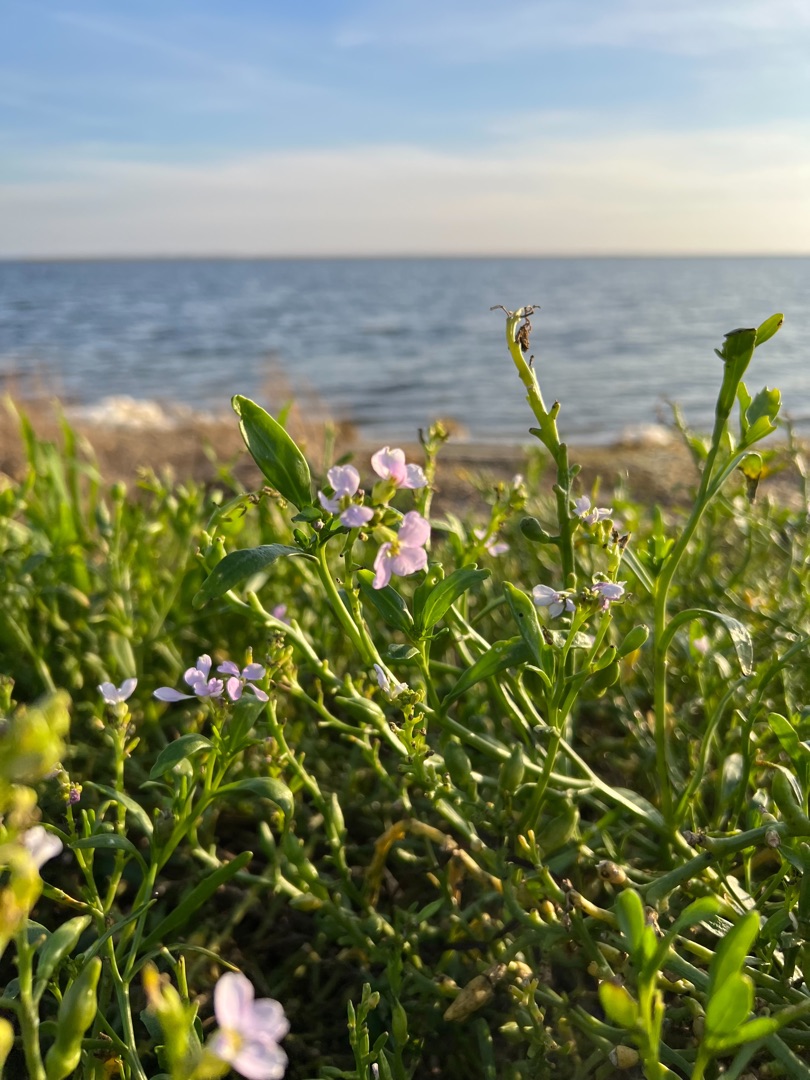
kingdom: Plantae
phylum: Tracheophyta
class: Magnoliopsida
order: Brassicales
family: Brassicaceae
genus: Cakile
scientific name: Cakile maritima
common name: Strandsennep
